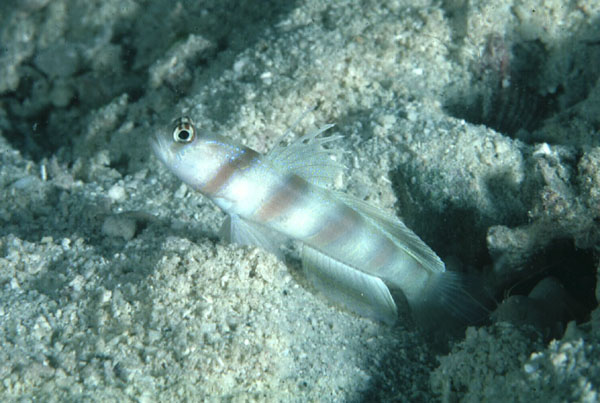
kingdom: Animalia
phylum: Chordata
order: Perciformes
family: Gobiidae
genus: Amblyeleotris
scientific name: Amblyeleotris steinitzi
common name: Steinitz' prawn-goby
